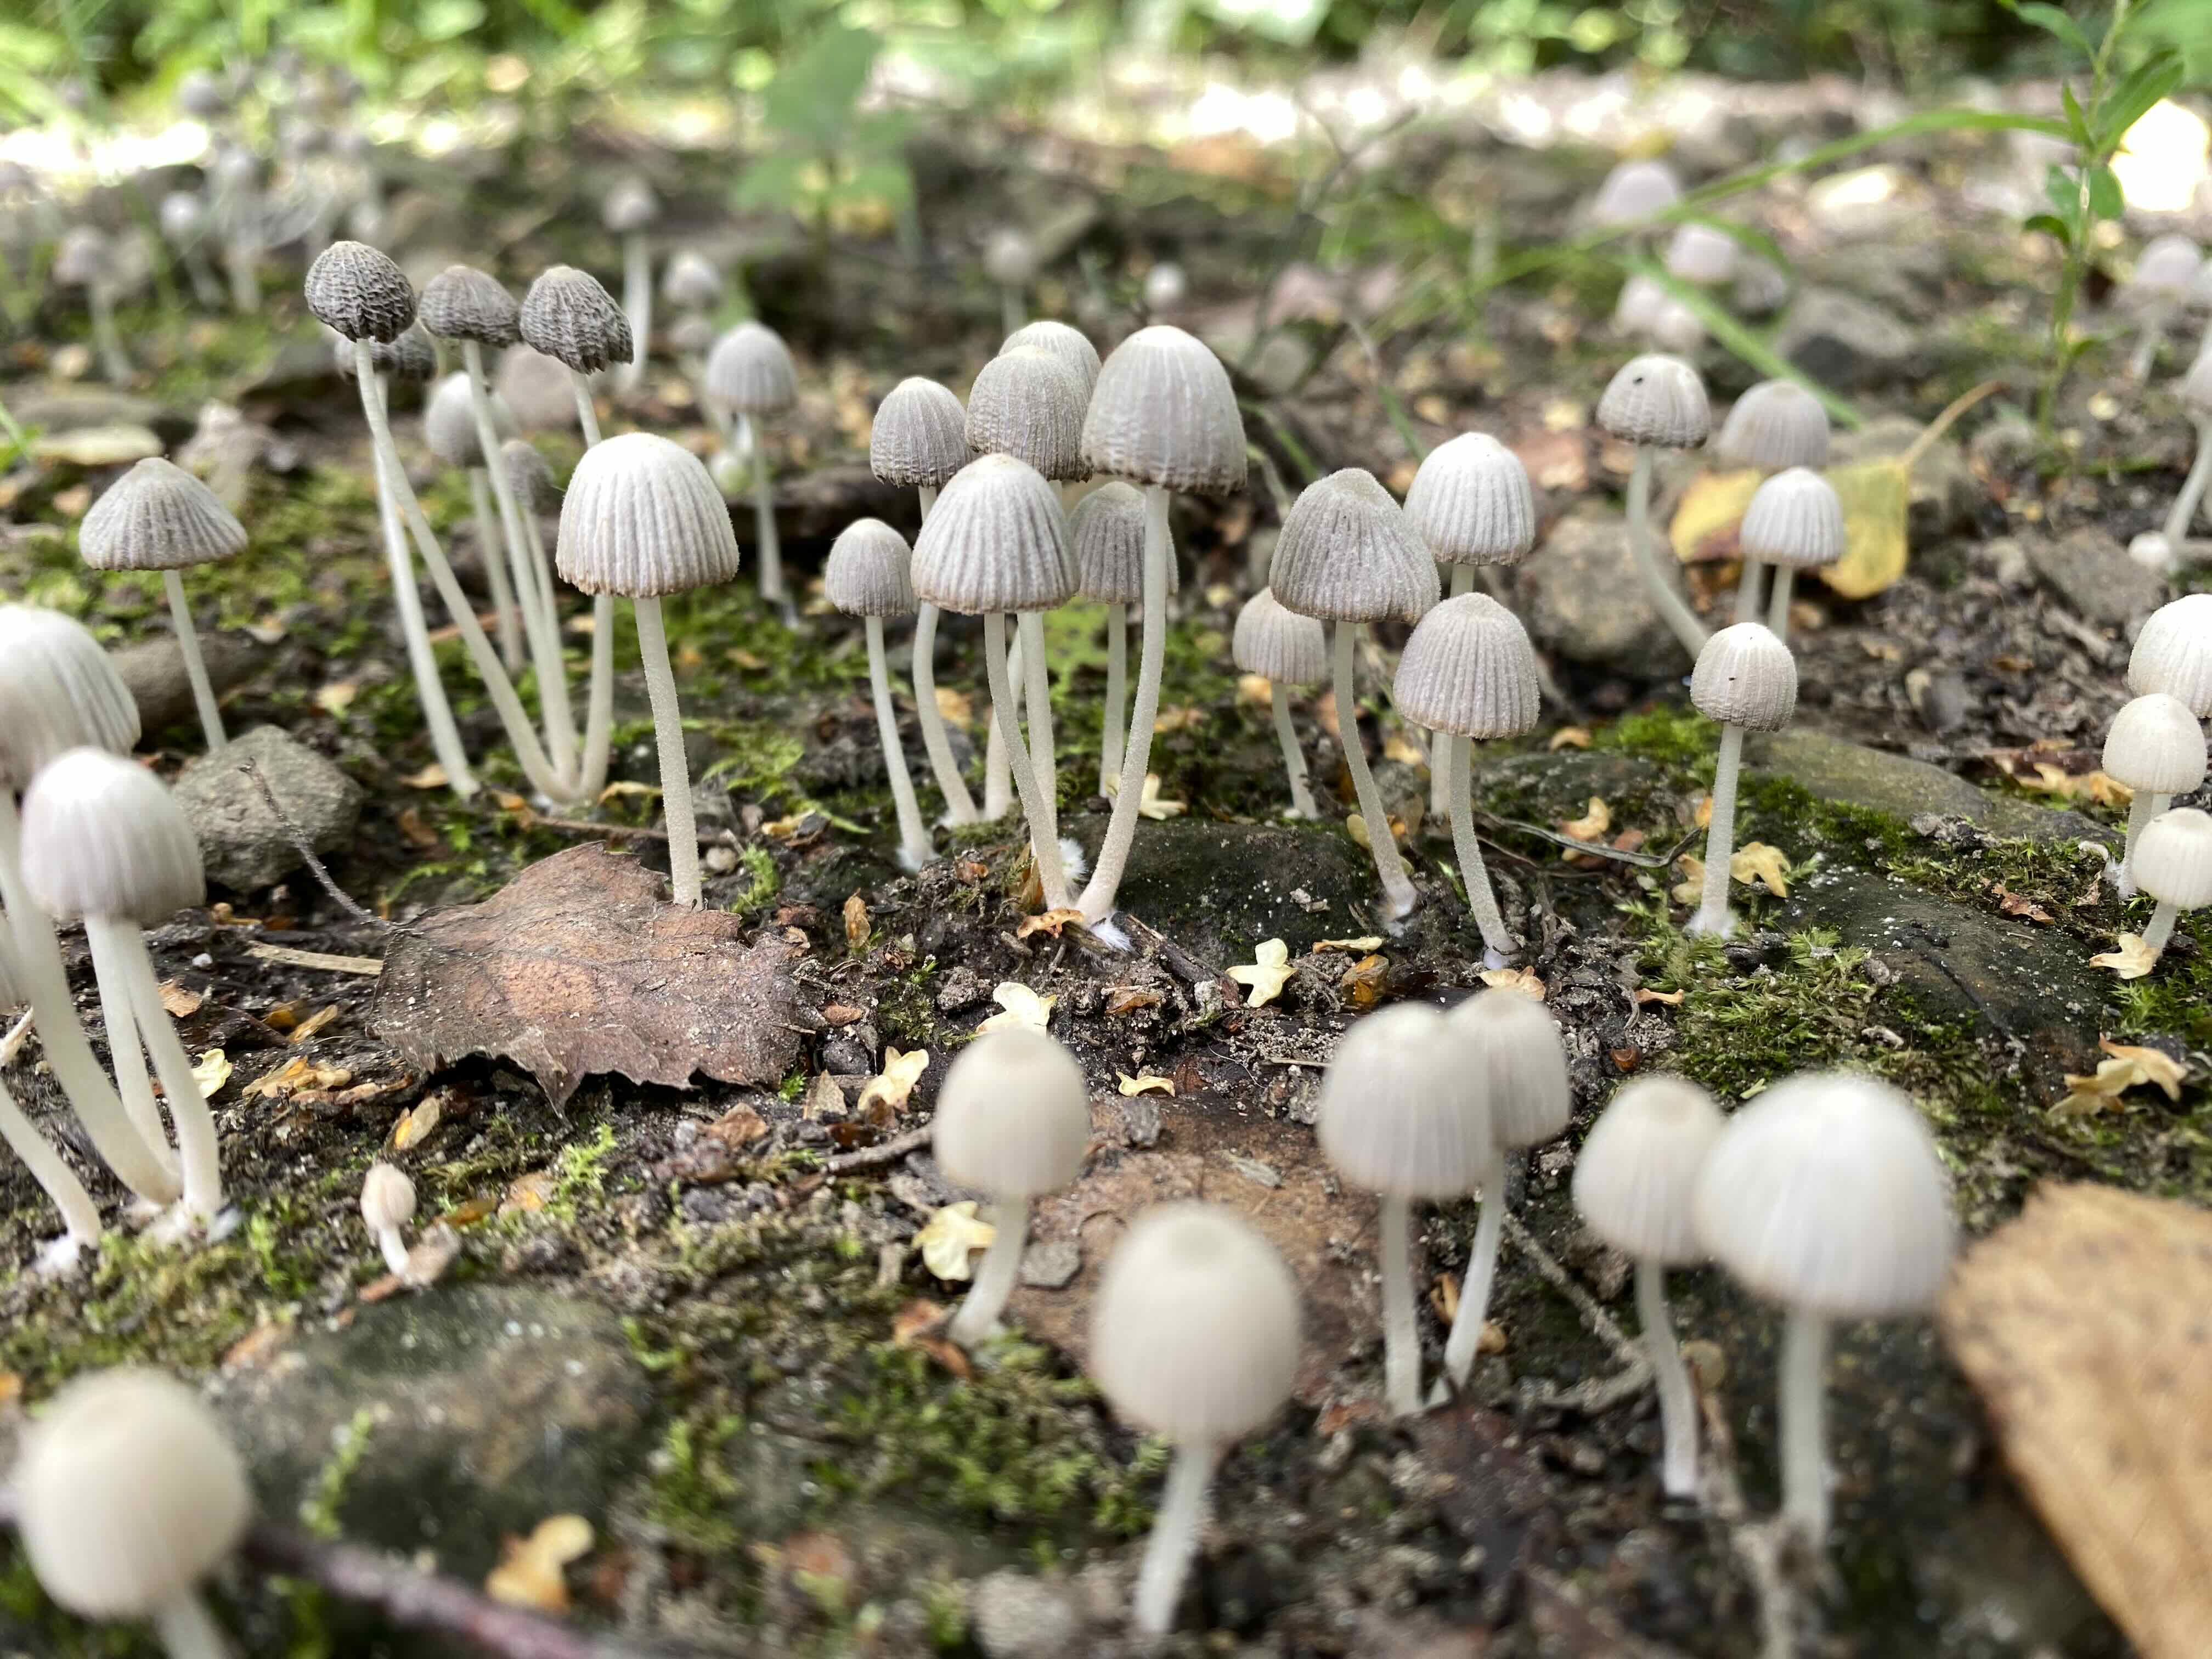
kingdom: Fungi
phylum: Basidiomycota
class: Agaricomycetes
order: Agaricales
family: Psathyrellaceae
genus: Coprinellus
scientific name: Coprinellus disseminatus
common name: bredsået blækhat
